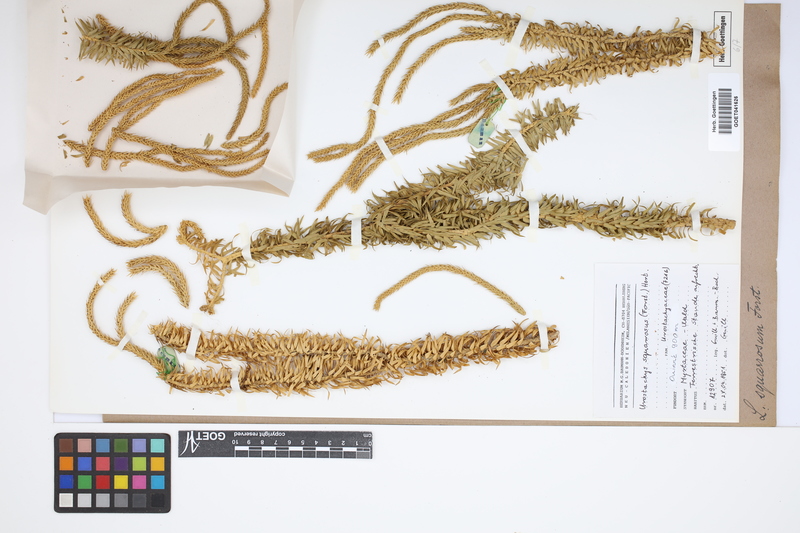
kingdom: Plantae
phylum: Tracheophyta
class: Lycopodiopsida
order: Lycopodiales
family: Lycopodiaceae
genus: Phlegmariurus
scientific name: Phlegmariurus squarrosus
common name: Rock tassel-fern
